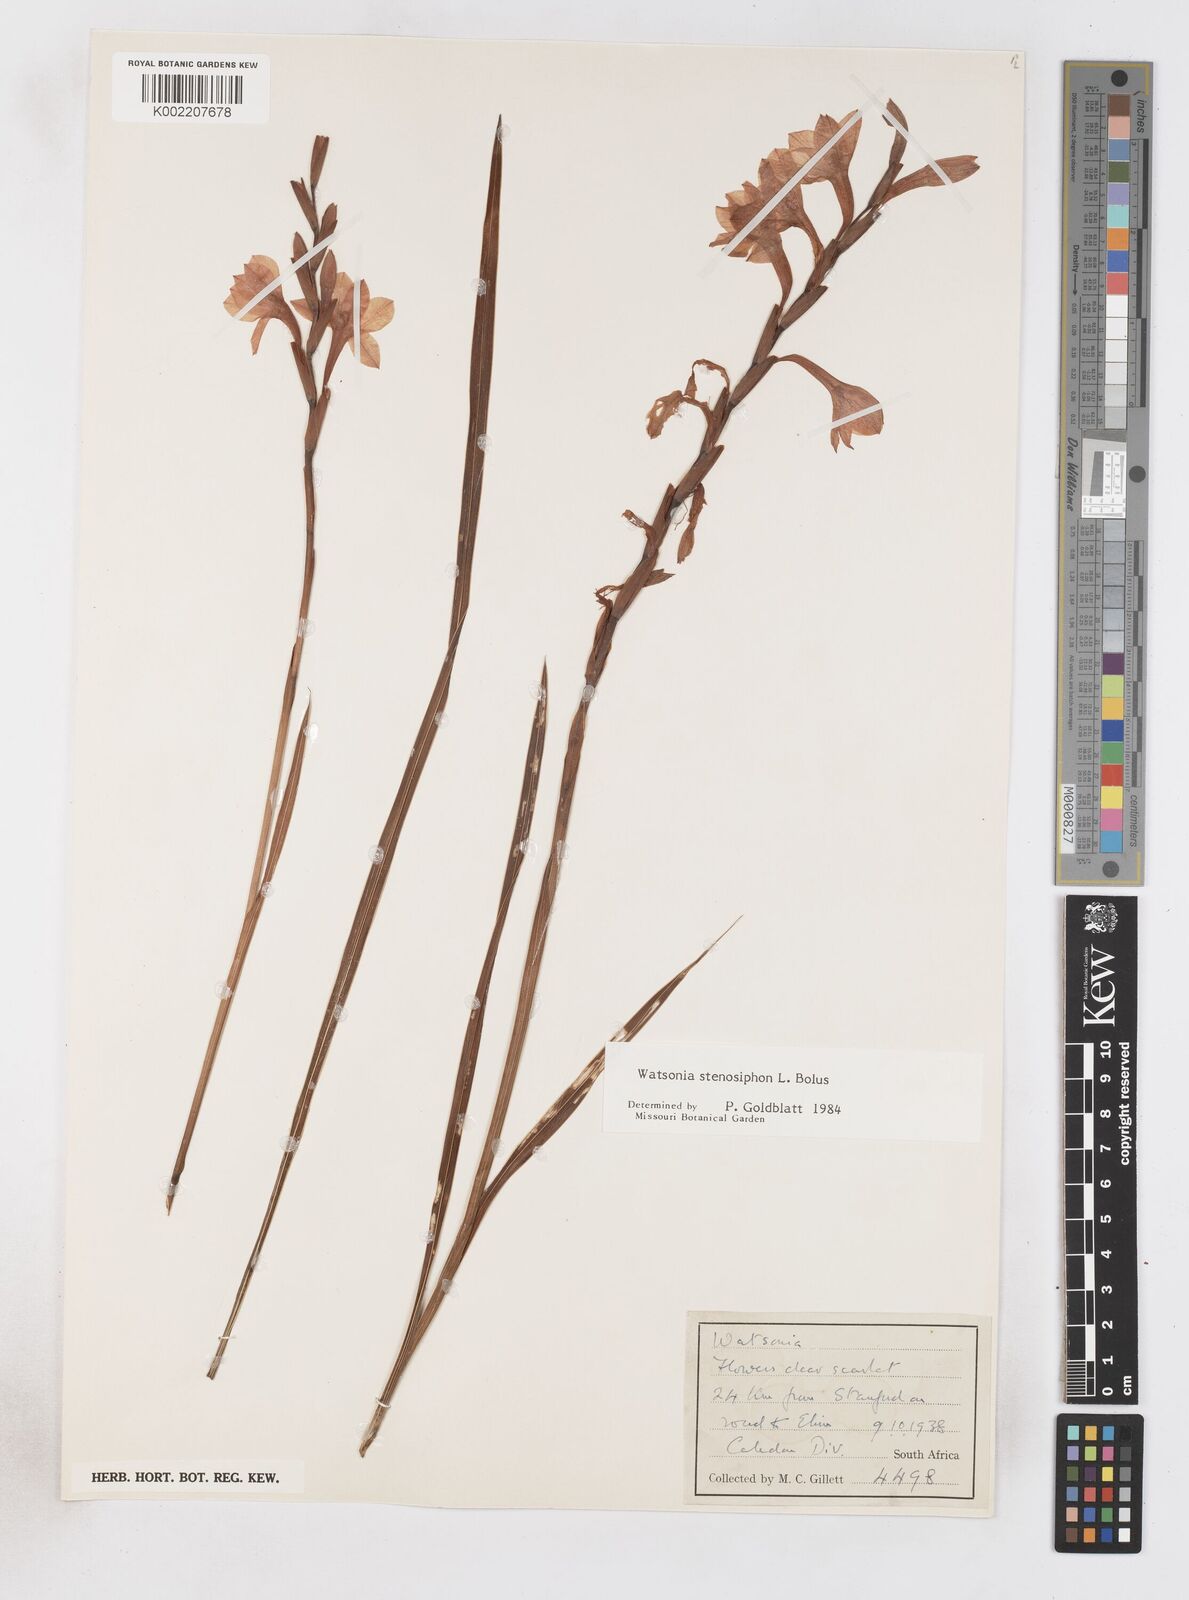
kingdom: Plantae
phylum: Tracheophyta
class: Liliopsida
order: Asparagales
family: Iridaceae
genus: Watsonia
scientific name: Watsonia stenosiphon
